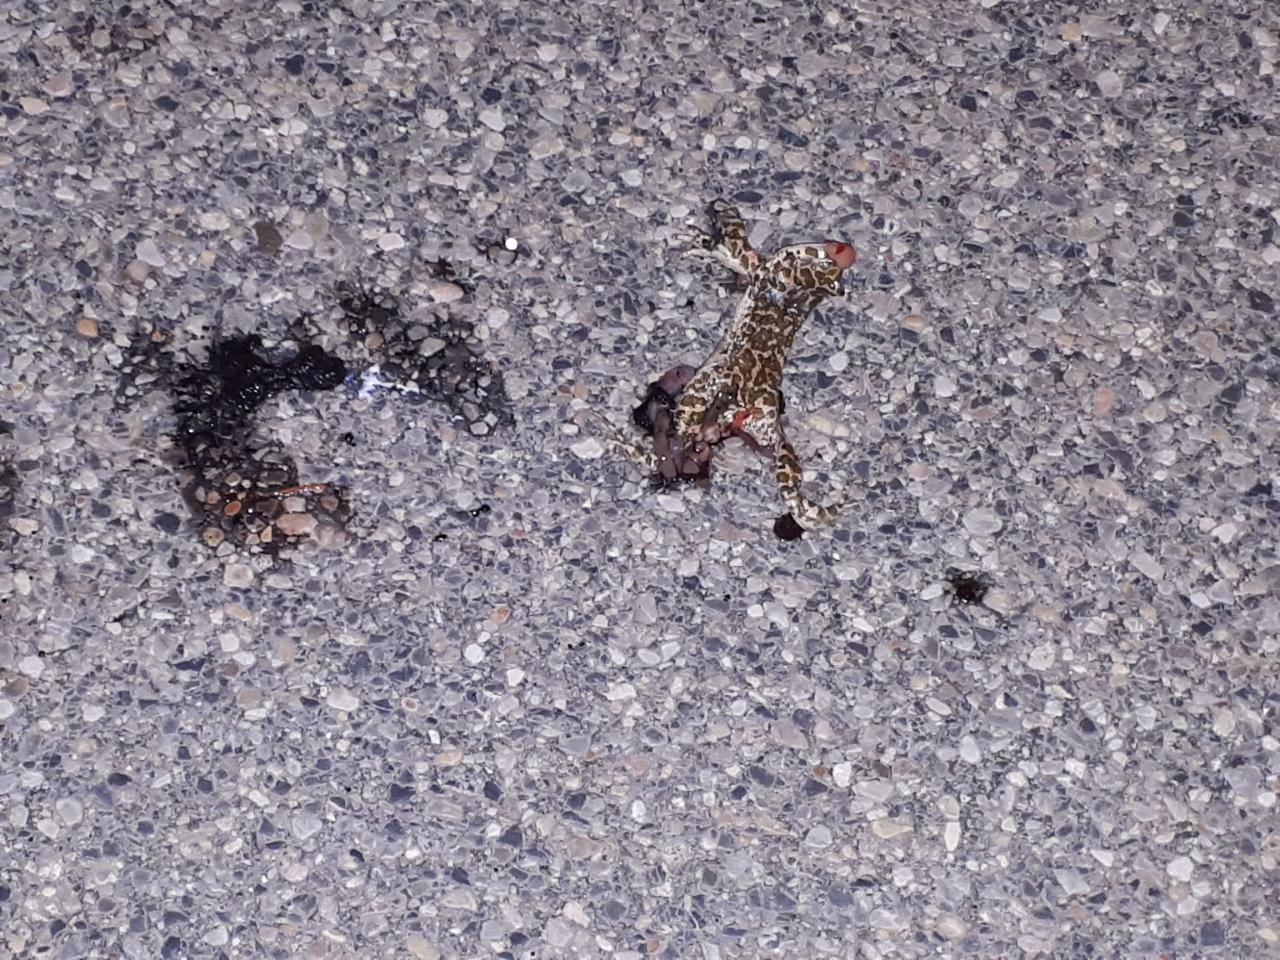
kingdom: Animalia
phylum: Chordata
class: Amphibia
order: Anura
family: Bufonidae
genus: Bufotes
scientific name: Bufotes viridis
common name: European green toad
